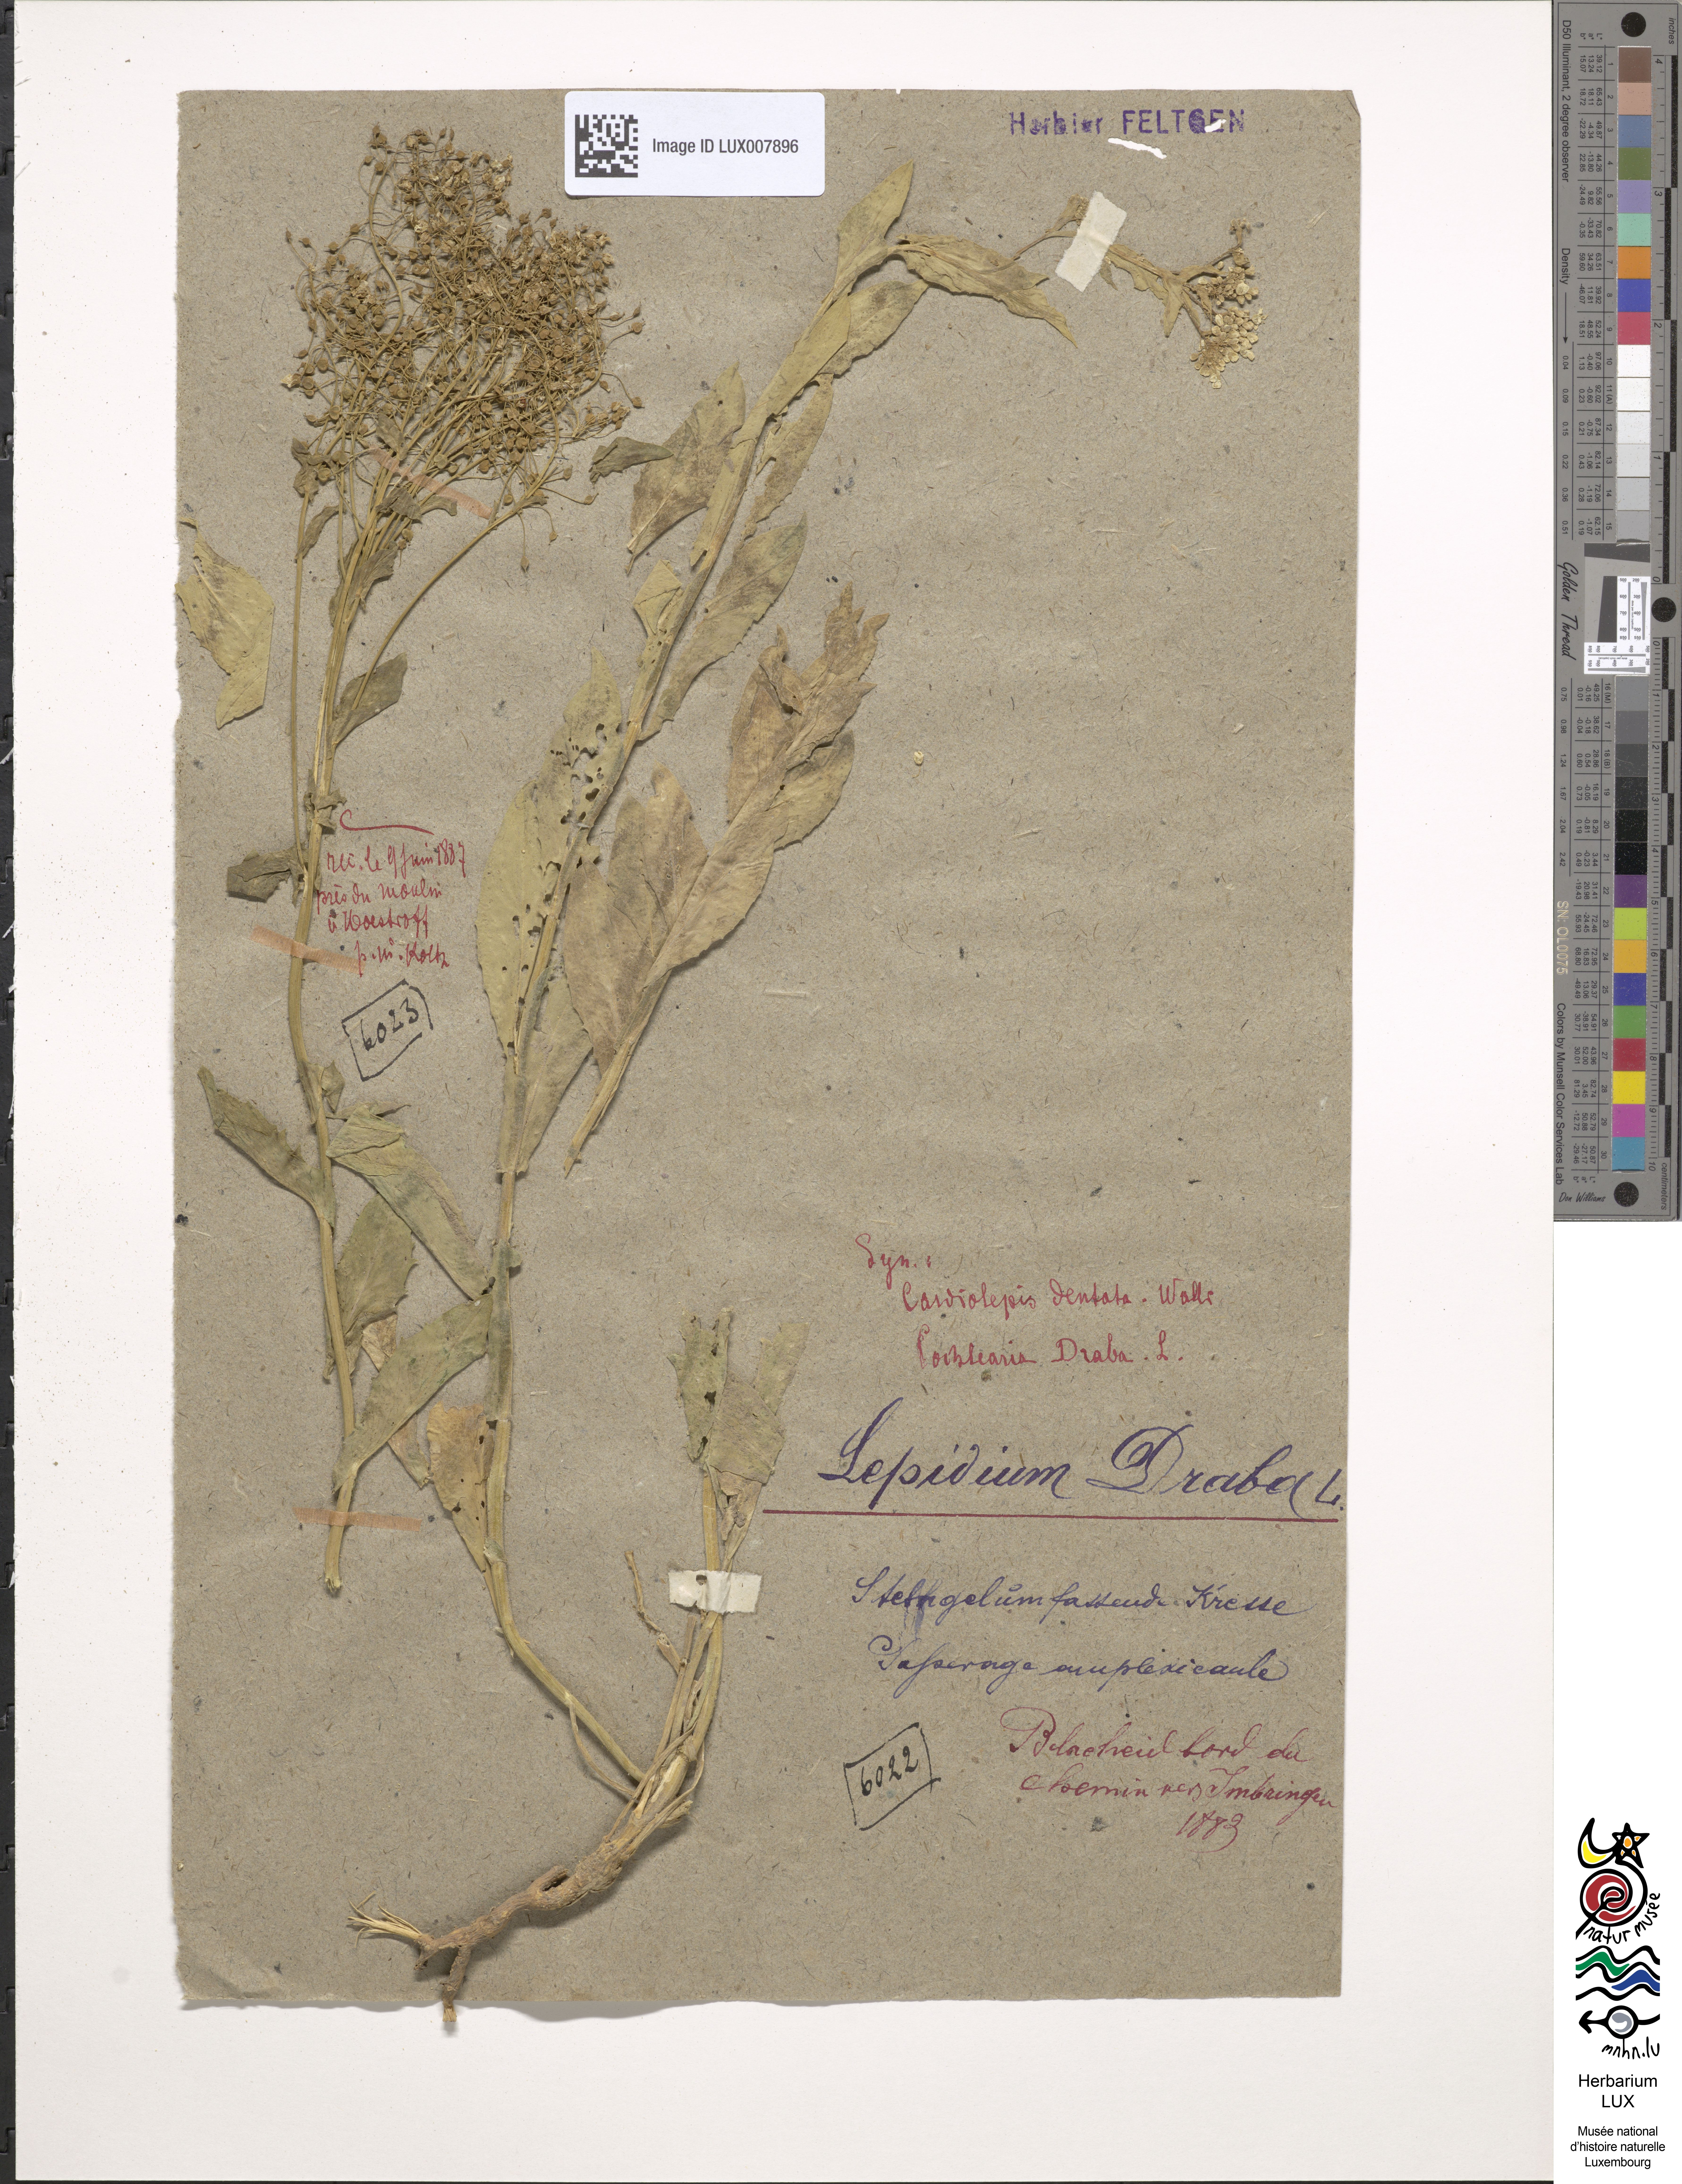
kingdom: Plantae
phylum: Tracheophyta
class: Magnoliopsida
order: Brassicales
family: Brassicaceae
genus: Lepidium
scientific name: Lepidium draba
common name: Hoary cress
